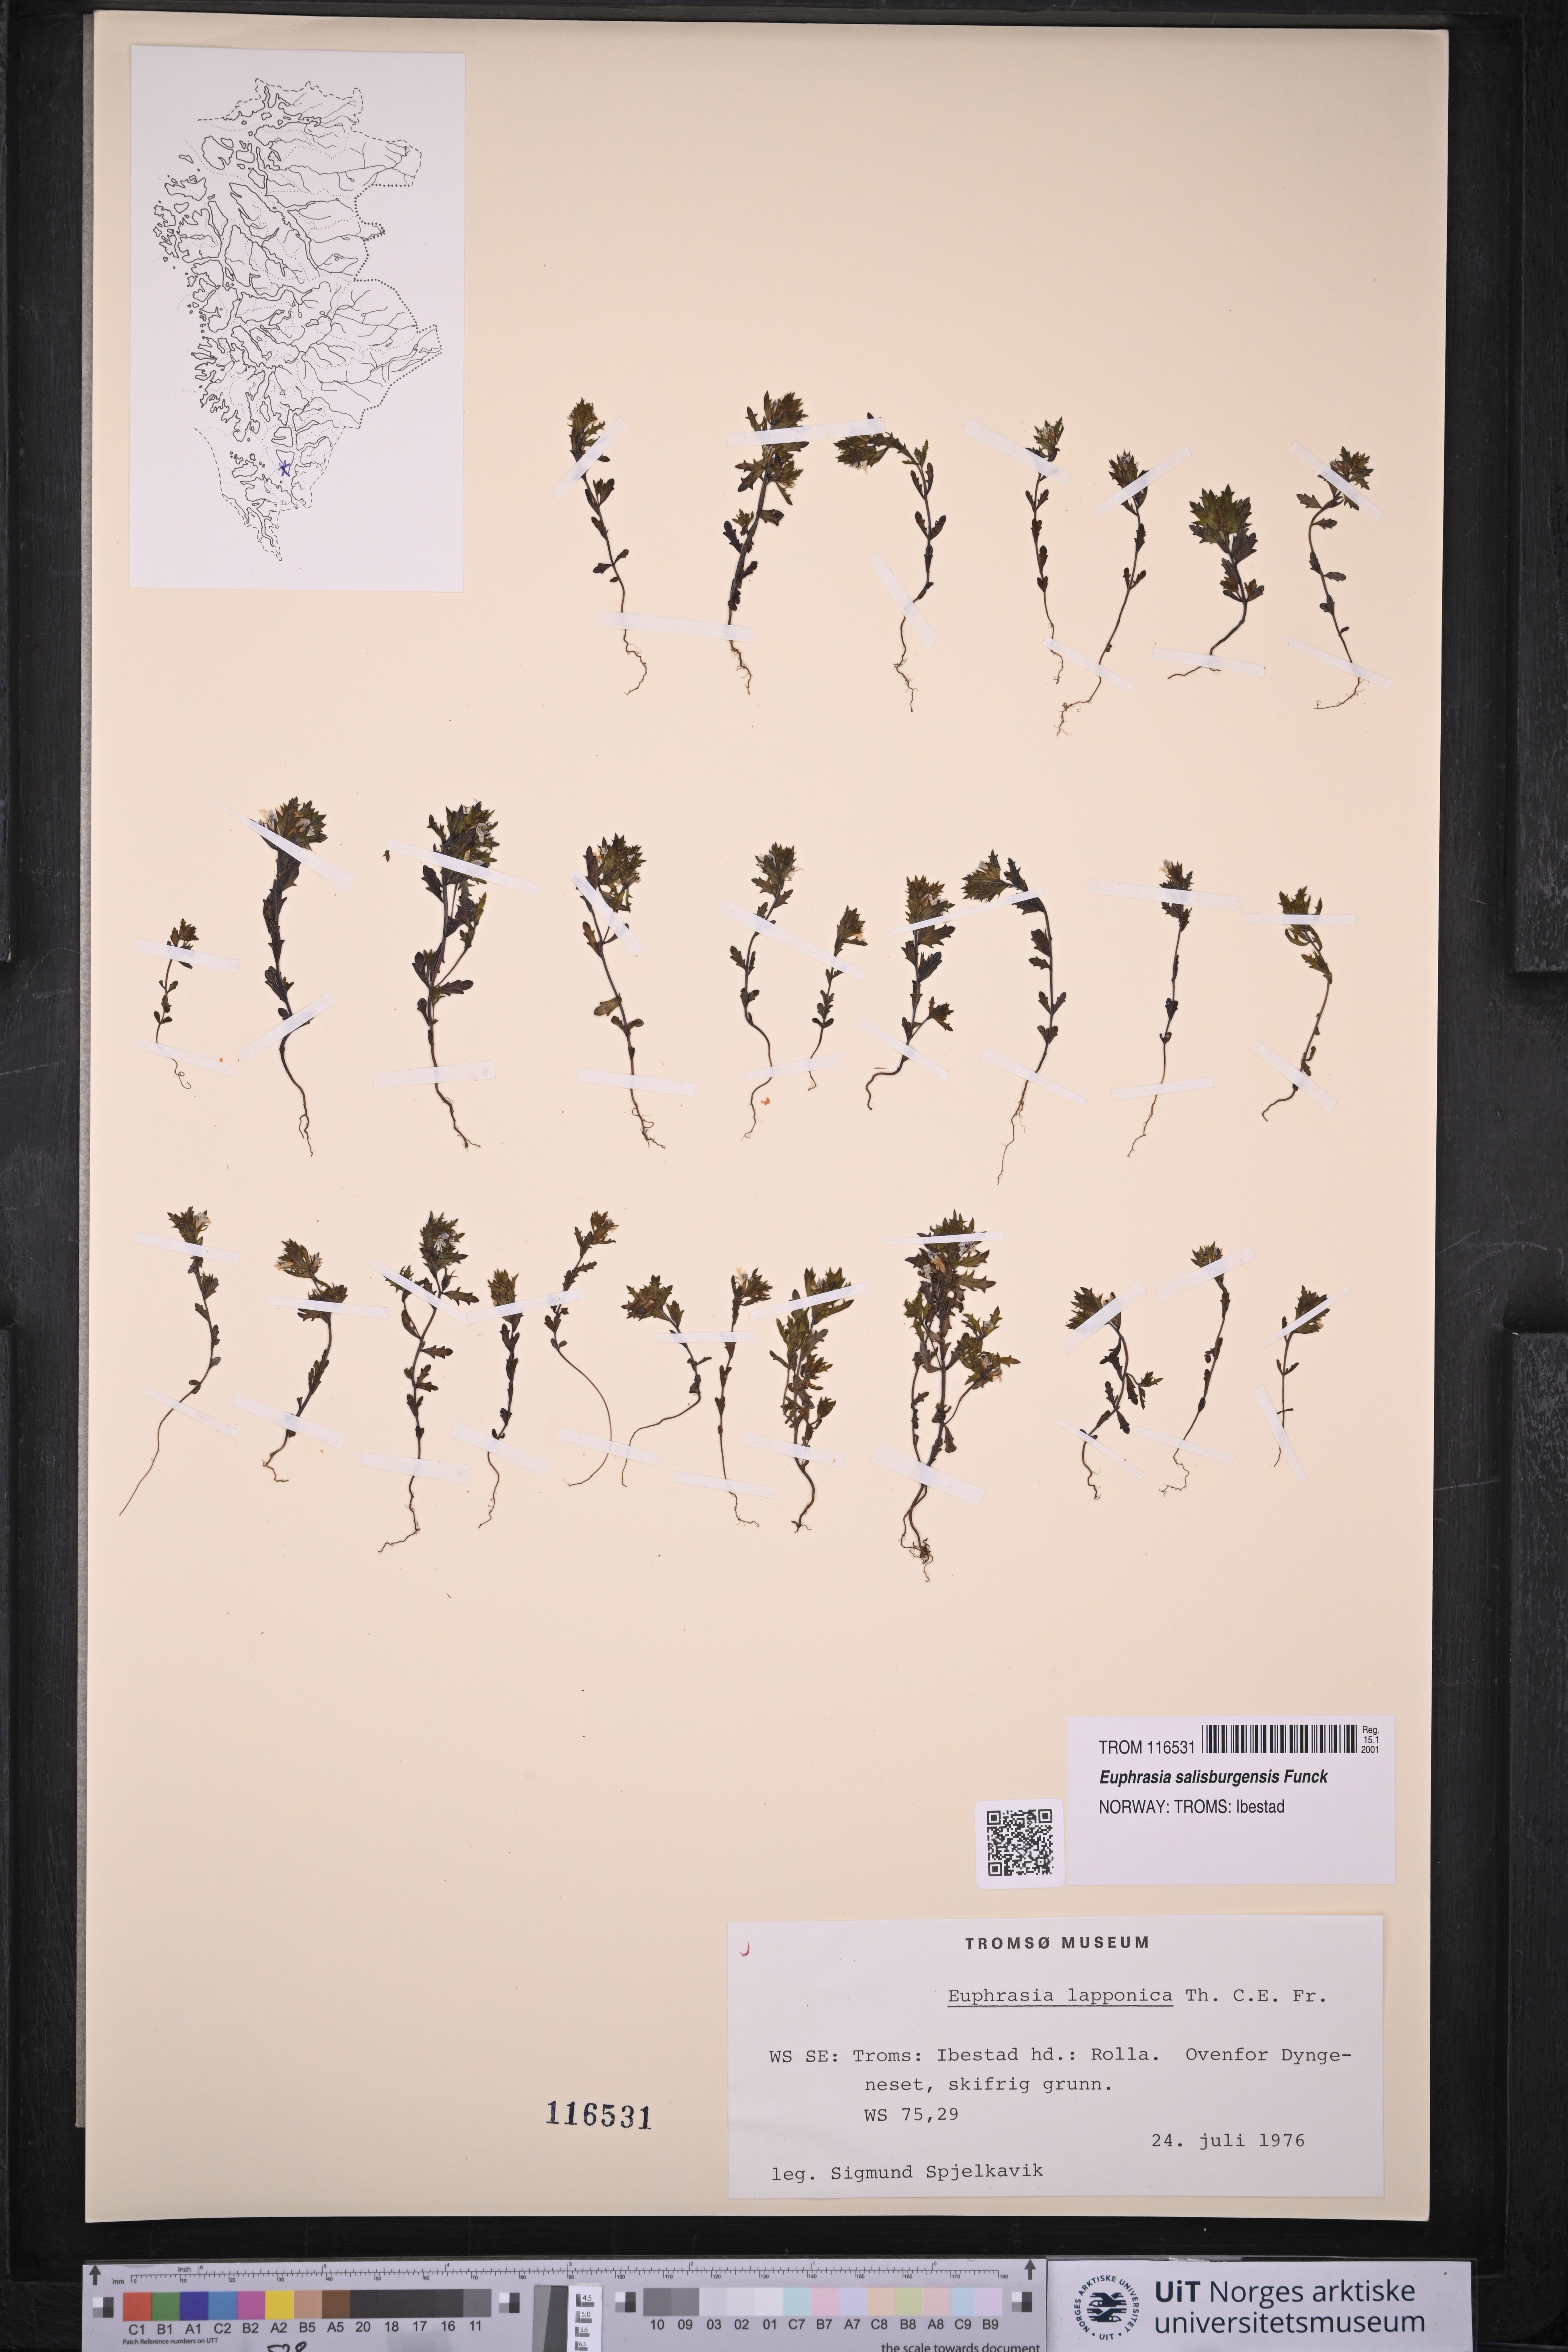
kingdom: Plantae
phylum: Tracheophyta
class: Magnoliopsida
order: Lamiales
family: Orobanchaceae
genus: Euphrasia
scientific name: Euphrasia salisburgensis
